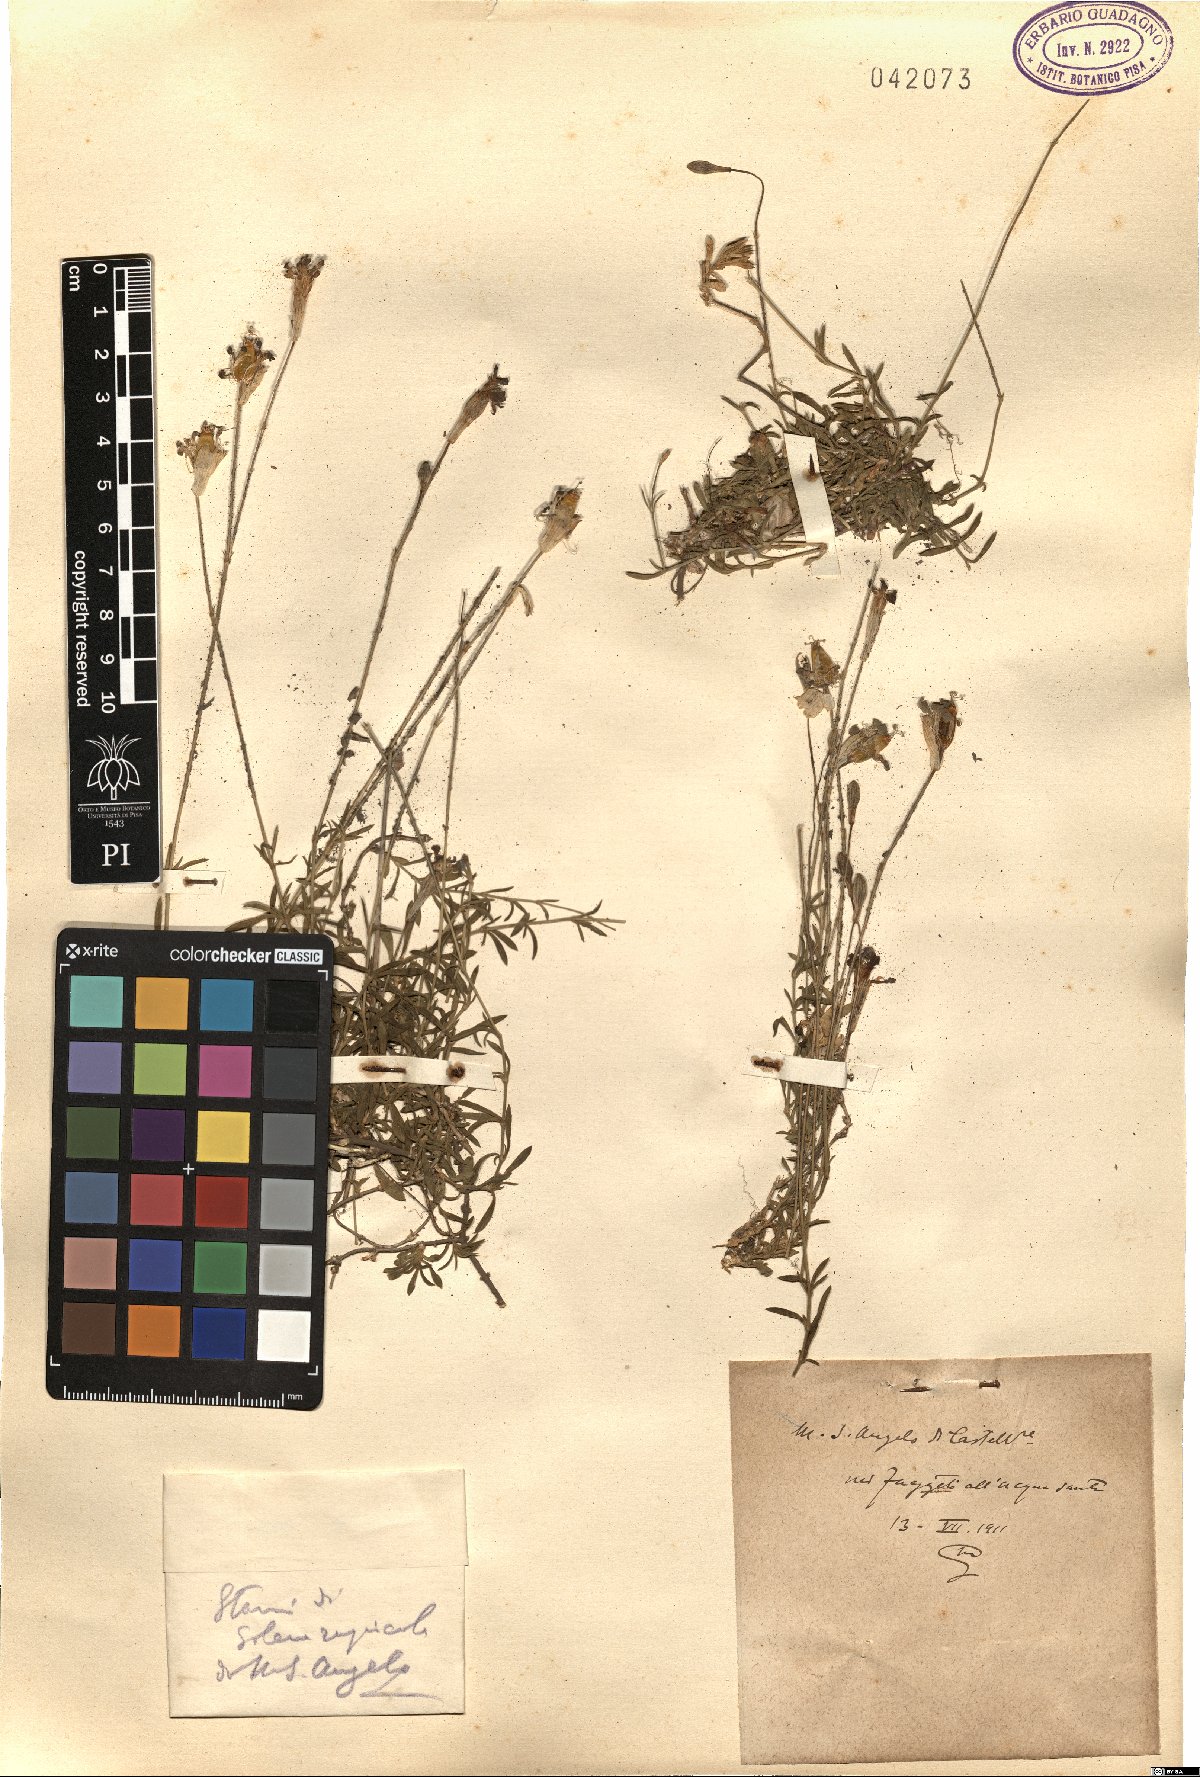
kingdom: Plantae
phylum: Tracheophyta
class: Magnoliopsida
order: Caryophyllales
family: Caryophyllaceae
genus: Silene
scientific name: Silene saxifraga
